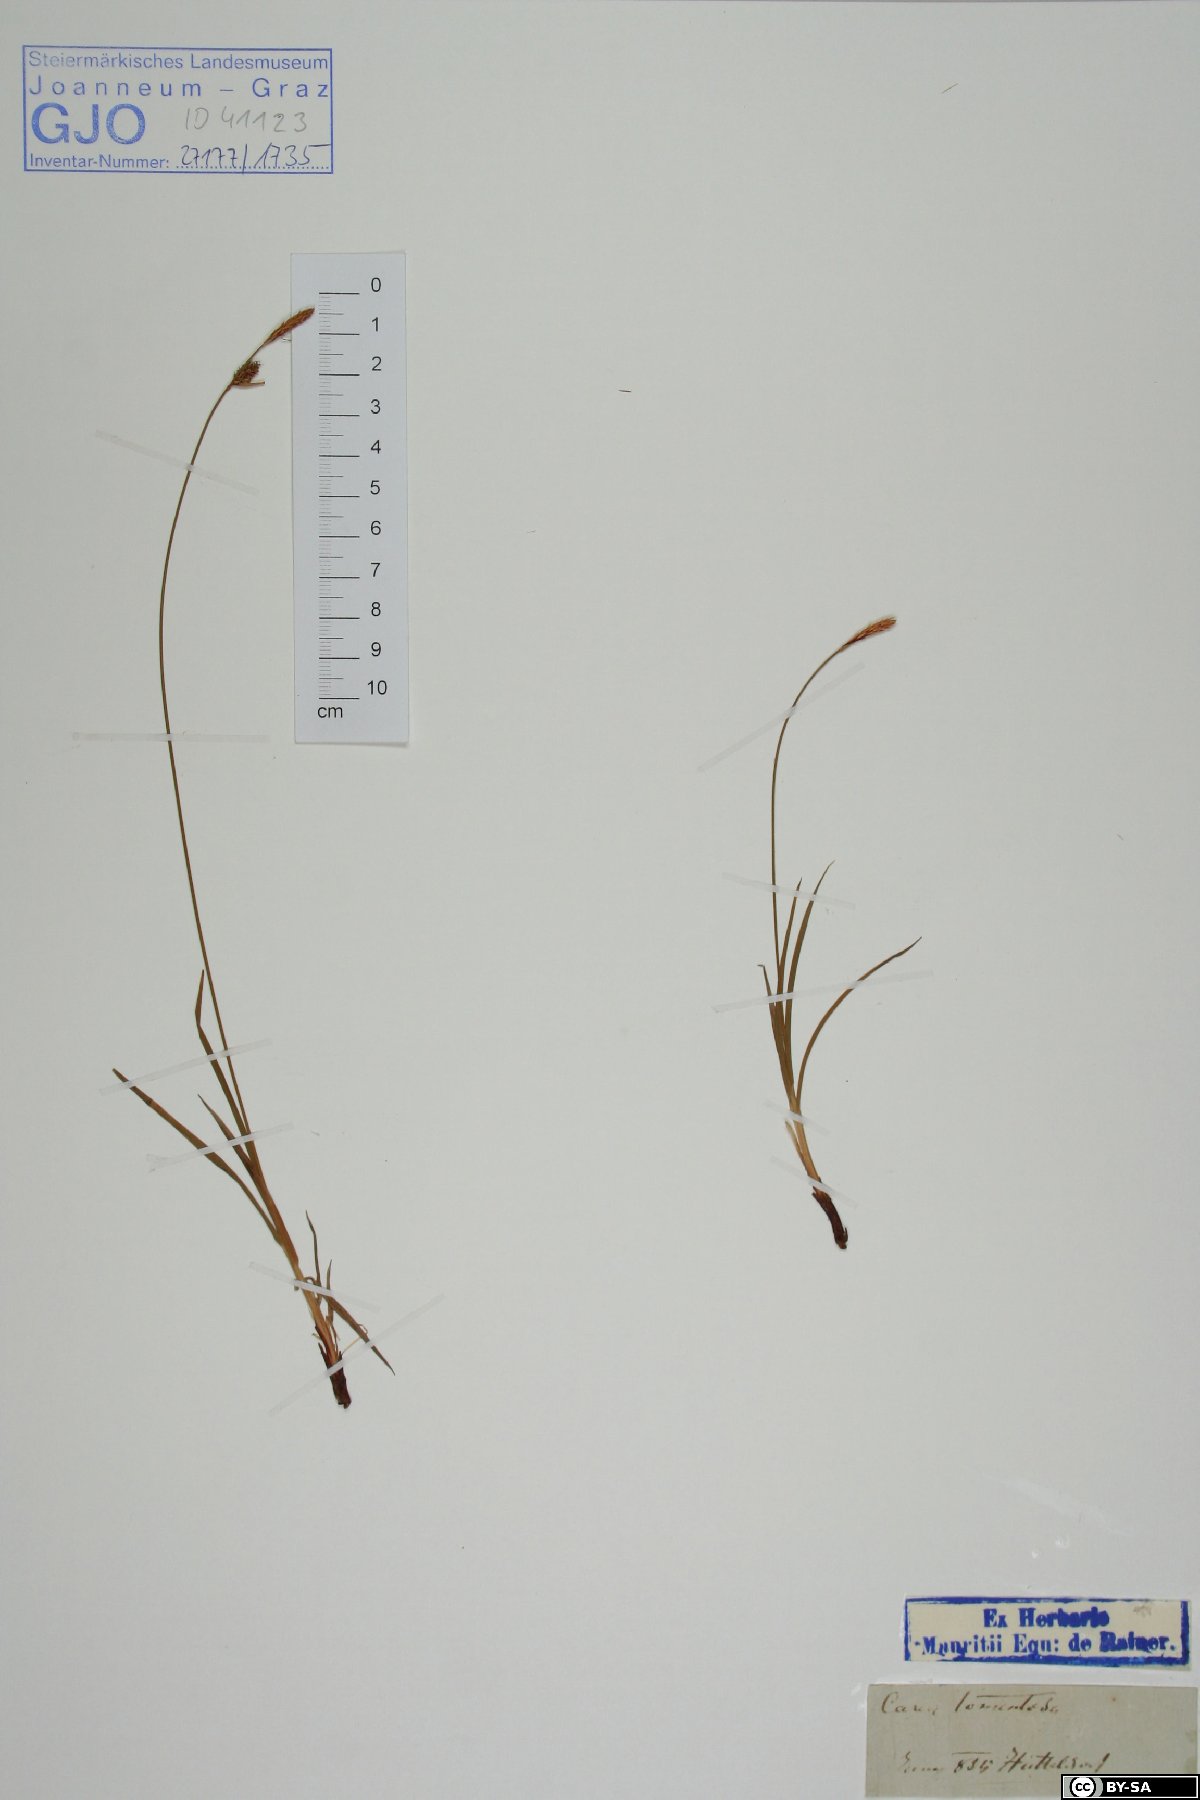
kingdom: Plantae
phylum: Tracheophyta
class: Liliopsida
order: Poales
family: Cyperaceae
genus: Carex
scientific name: Carex tomentosa
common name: Downy-fruited sedge
